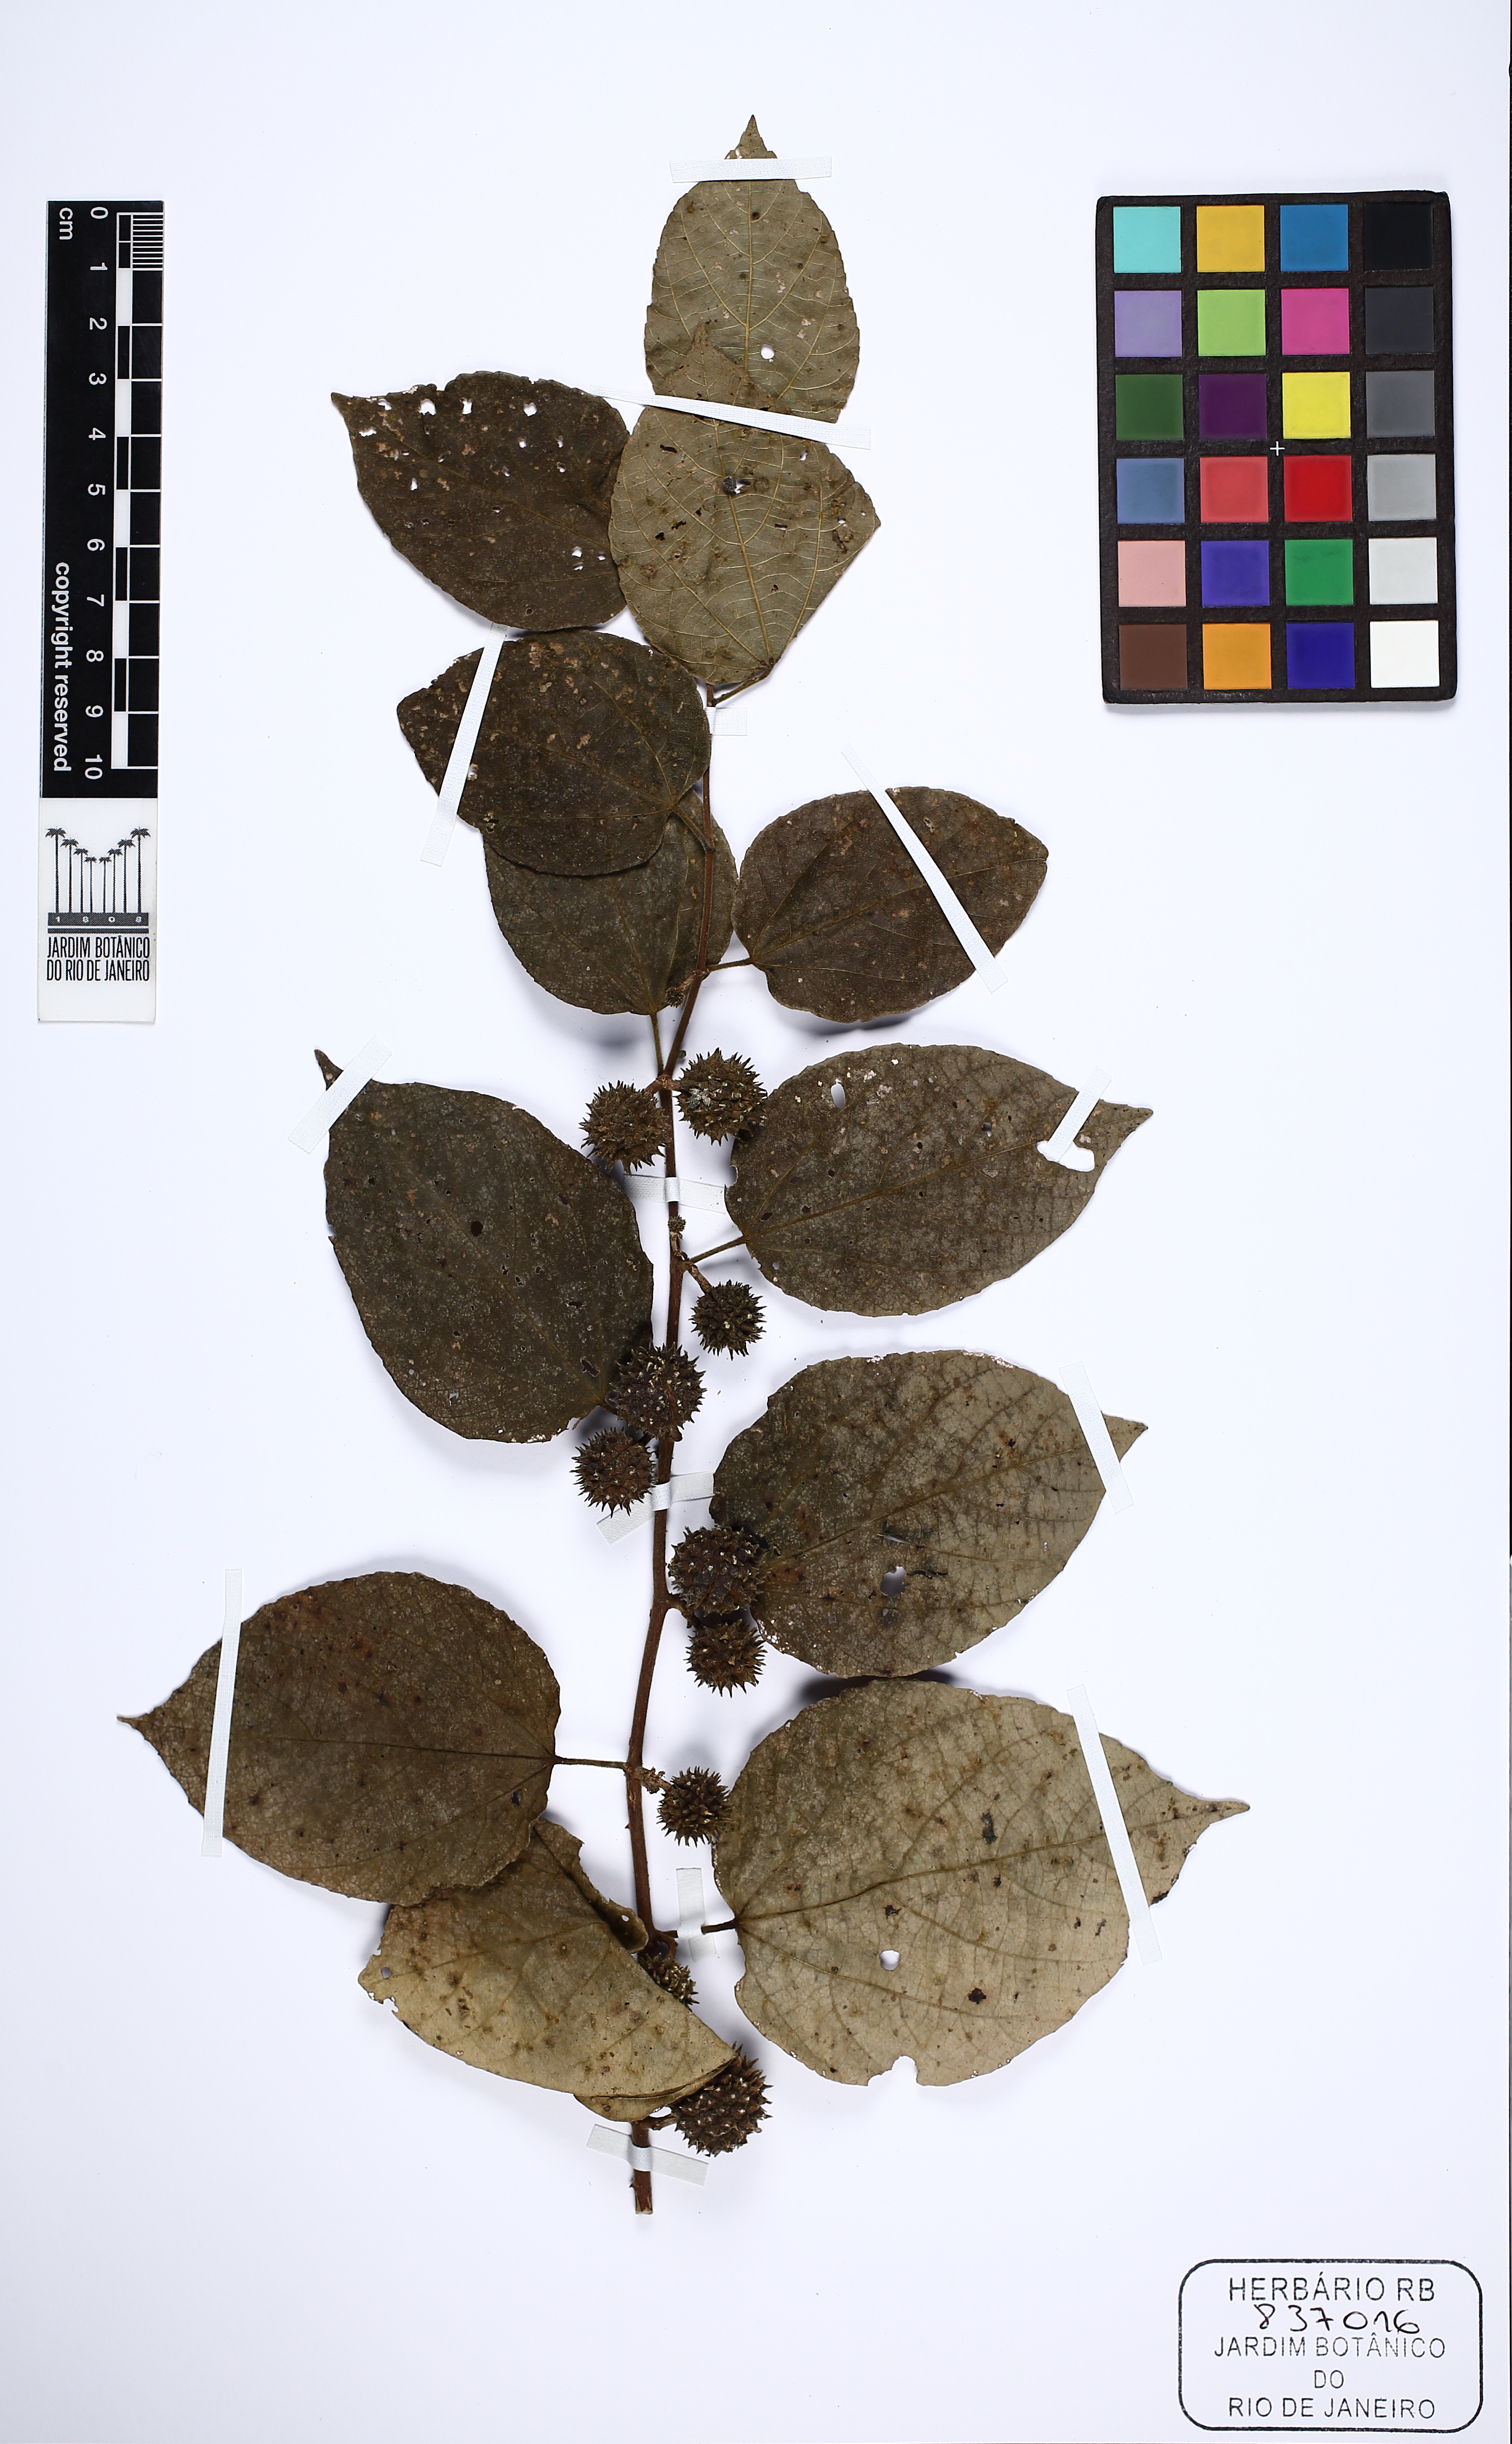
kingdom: Plantae
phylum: Tracheophyta
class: Magnoliopsida
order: Malvales
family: Malvaceae
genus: Guazuma
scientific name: Guazuma ulmifolia
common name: Bastard-cedar
